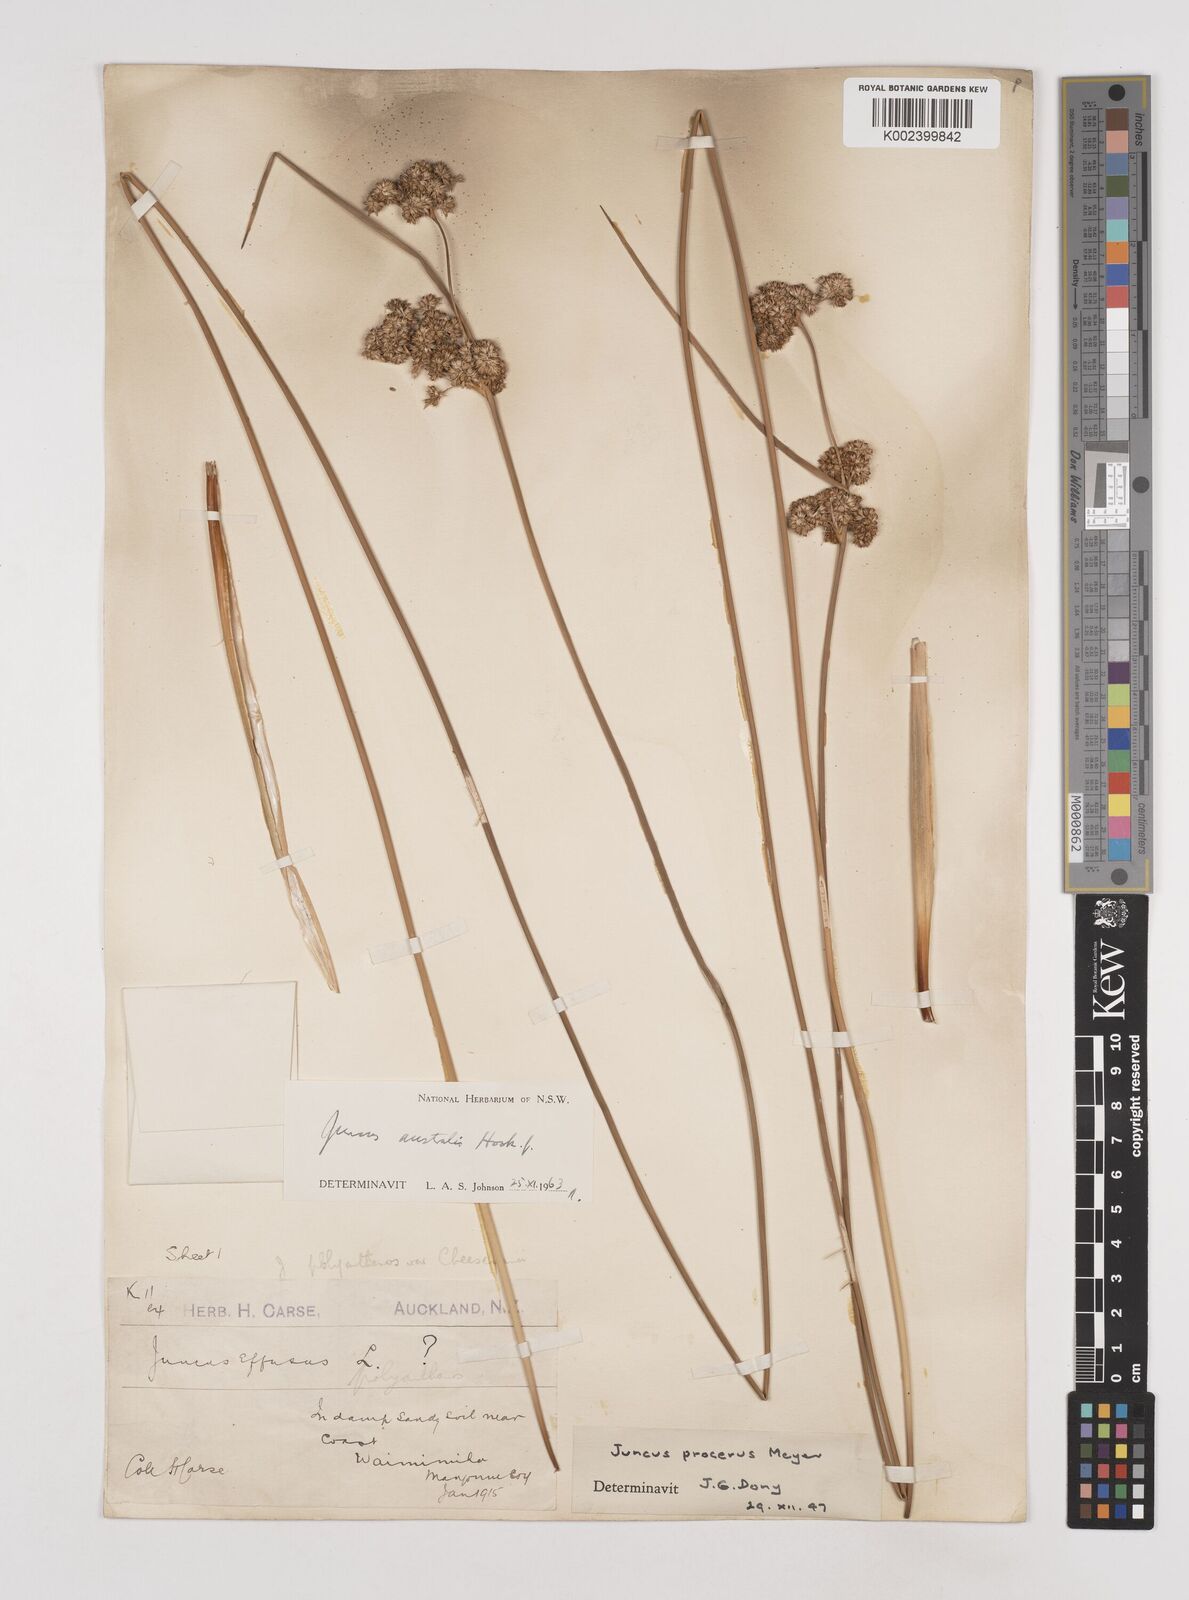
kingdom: Plantae
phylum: Tracheophyta
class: Liliopsida
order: Poales
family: Juncaceae
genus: Juncus
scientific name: Juncus australis
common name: Austral rush
